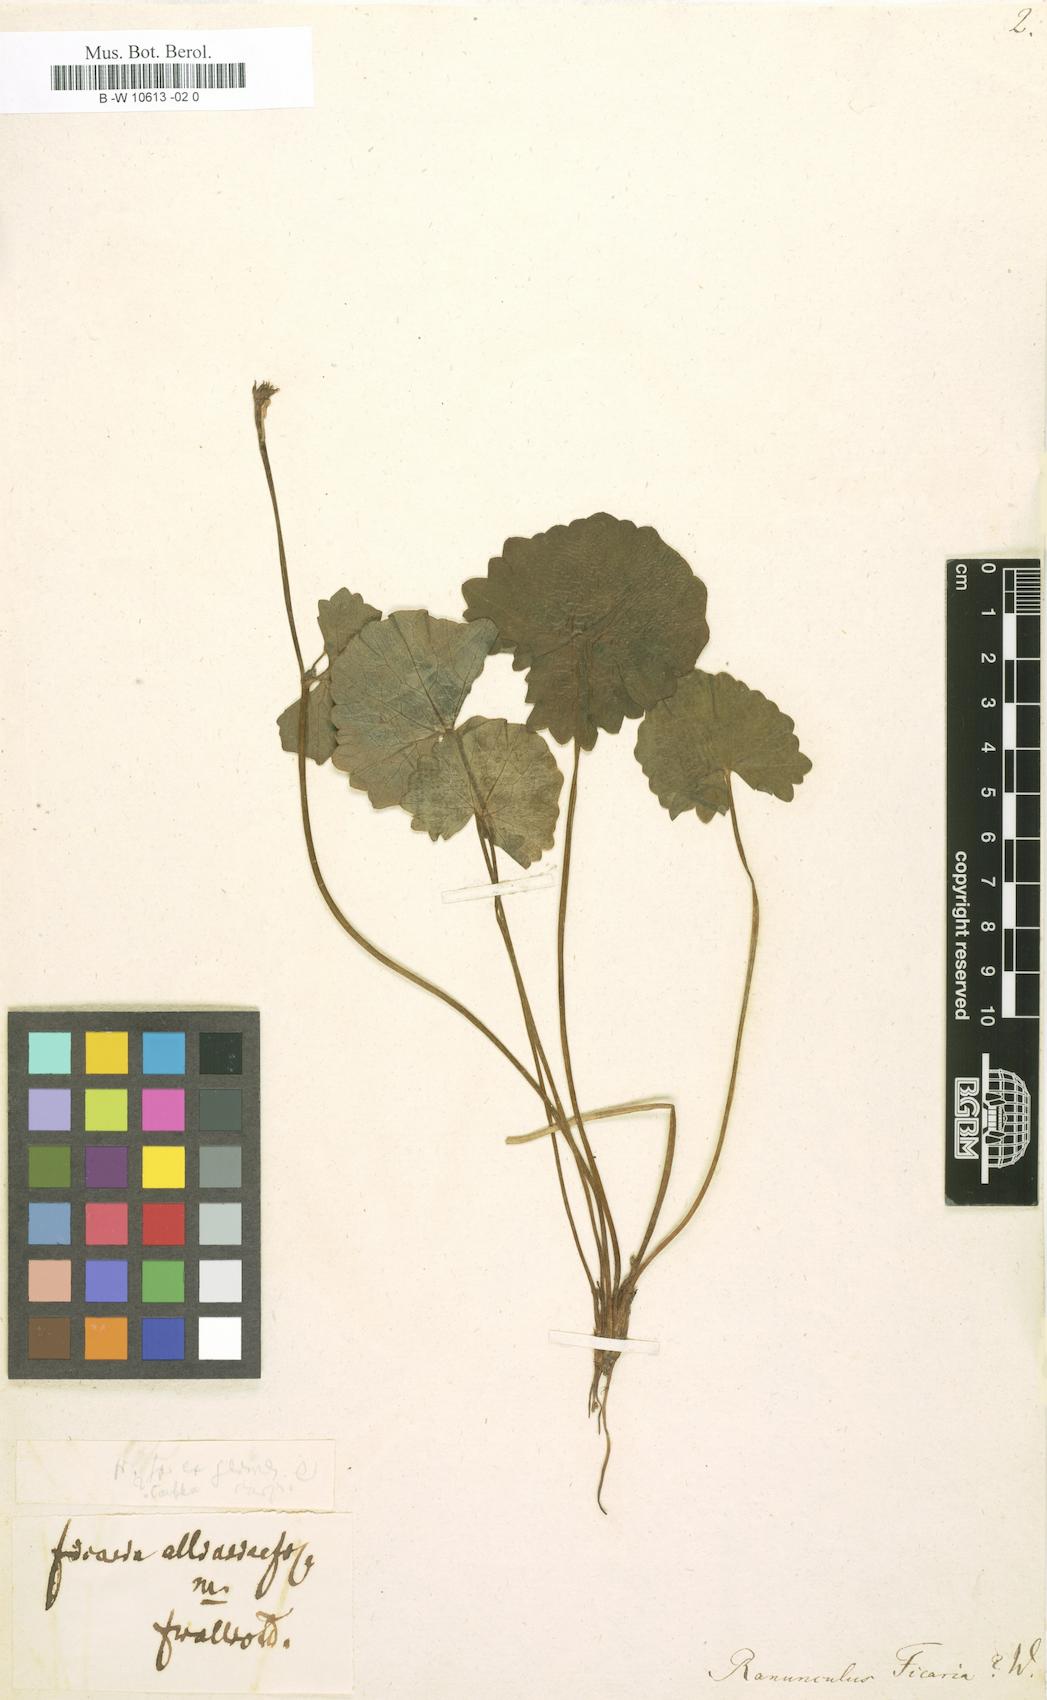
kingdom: Plantae
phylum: Tracheophyta
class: Magnoliopsida
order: Ranunculales
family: Ranunculaceae
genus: Ficaria
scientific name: Ficaria verna
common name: Lesser celandine
